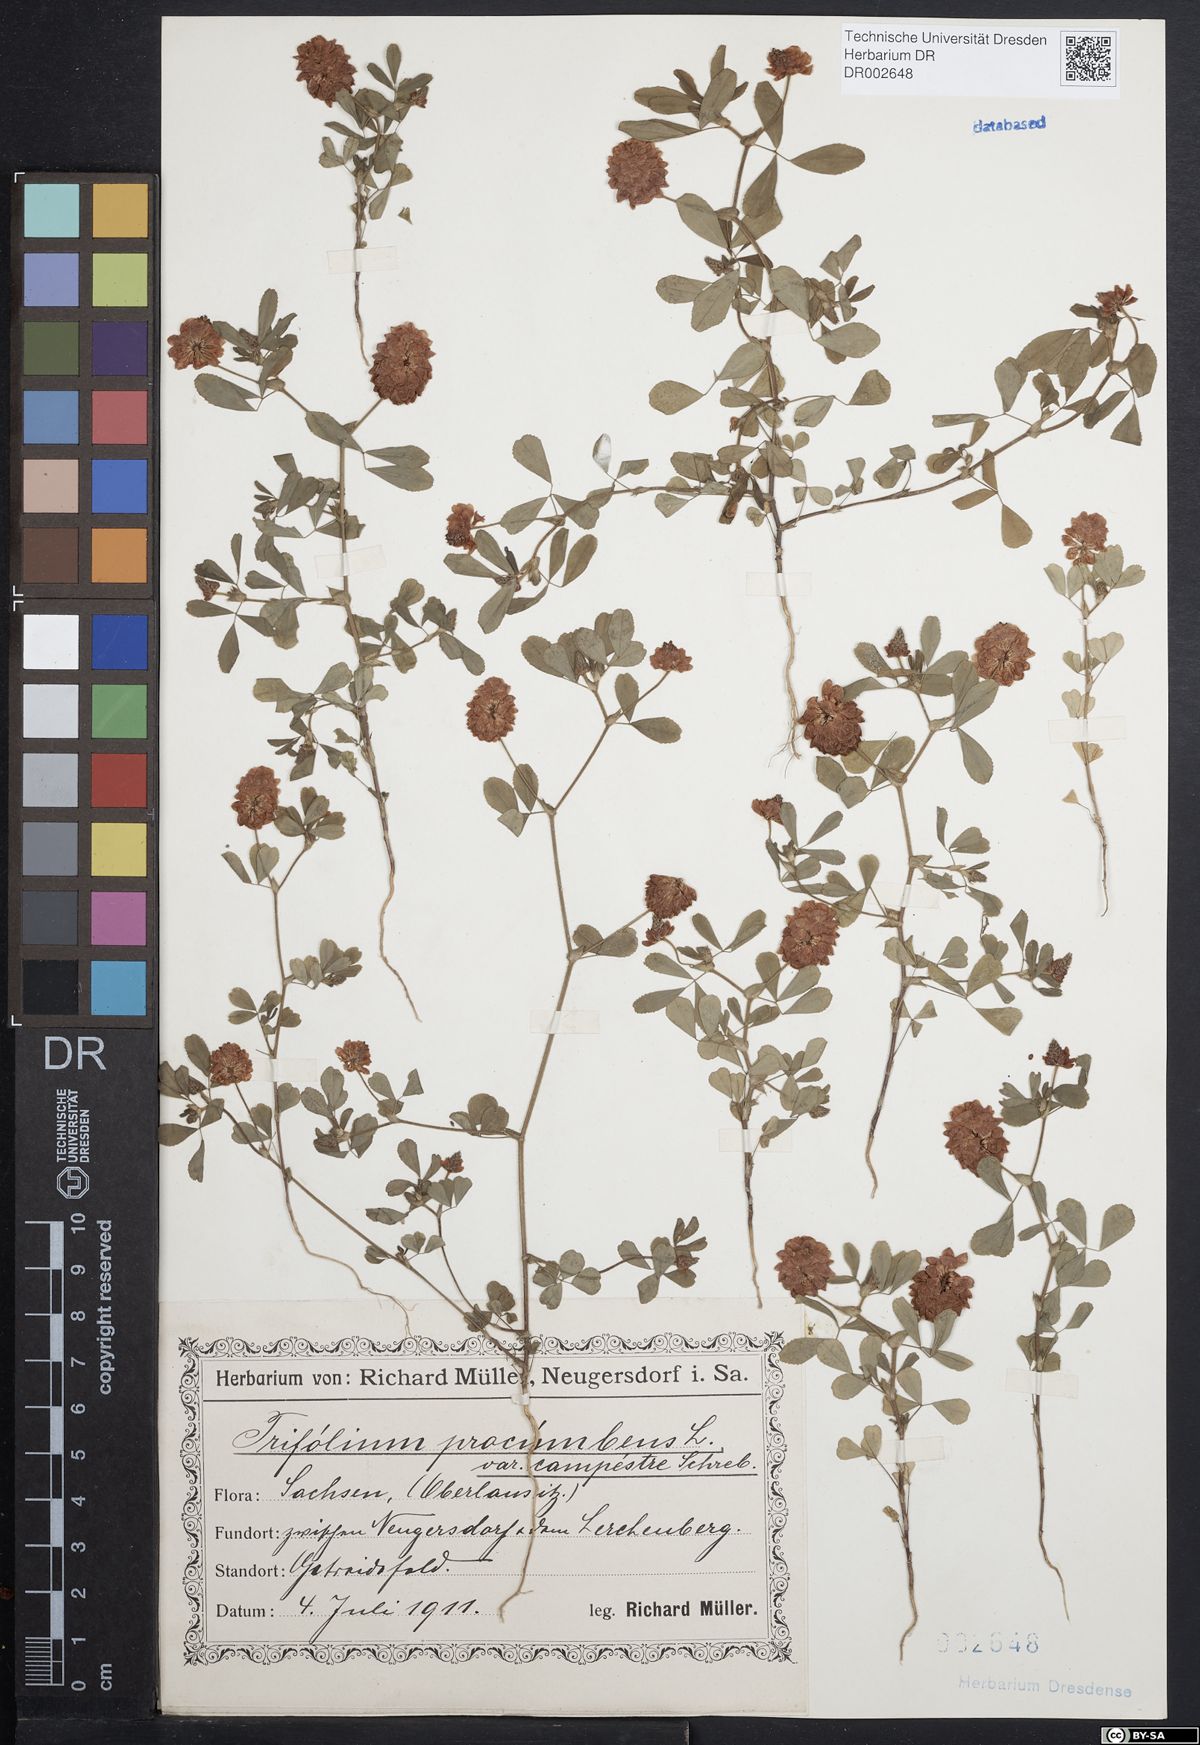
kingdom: Plantae
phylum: Tracheophyta
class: Magnoliopsida
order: Fabales
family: Fabaceae
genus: Trifolium
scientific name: Trifolium campestre
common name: Field clover
